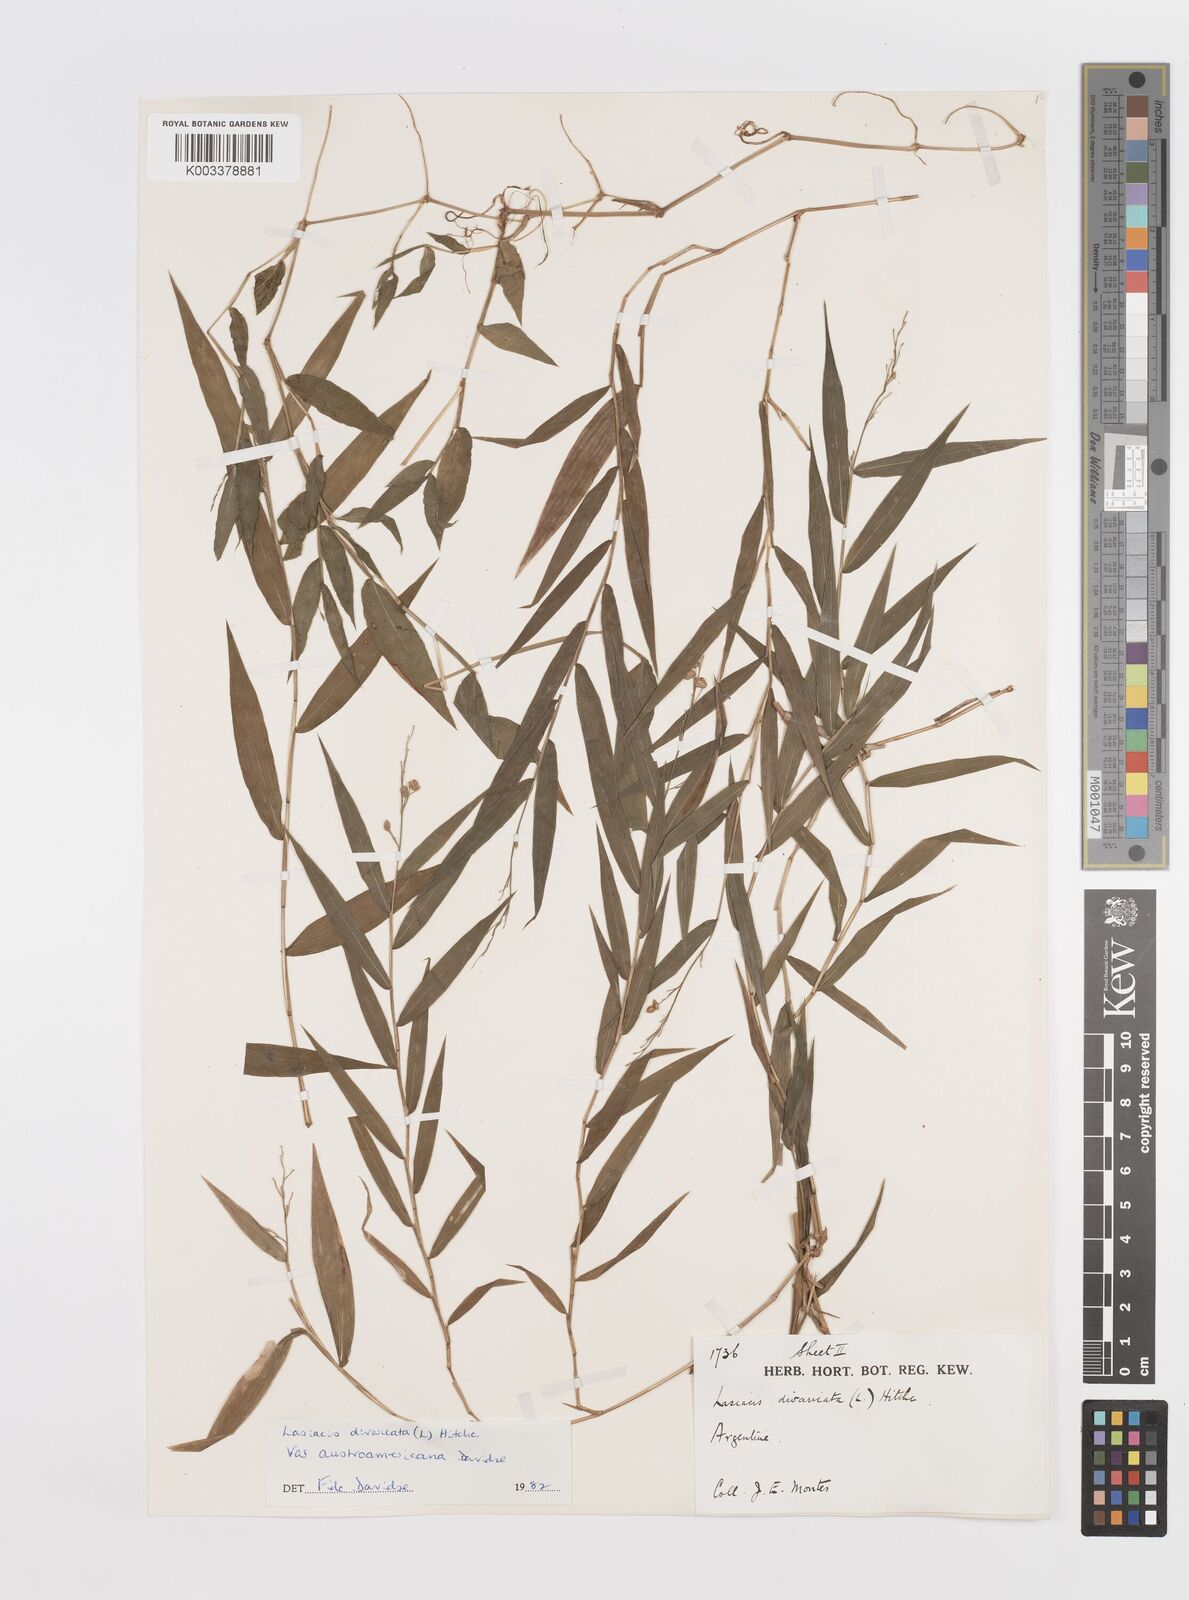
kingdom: Plantae
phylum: Tracheophyta
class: Liliopsida
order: Poales
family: Poaceae
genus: Lasiacis
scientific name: Lasiacis divaricata
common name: Smallcane
